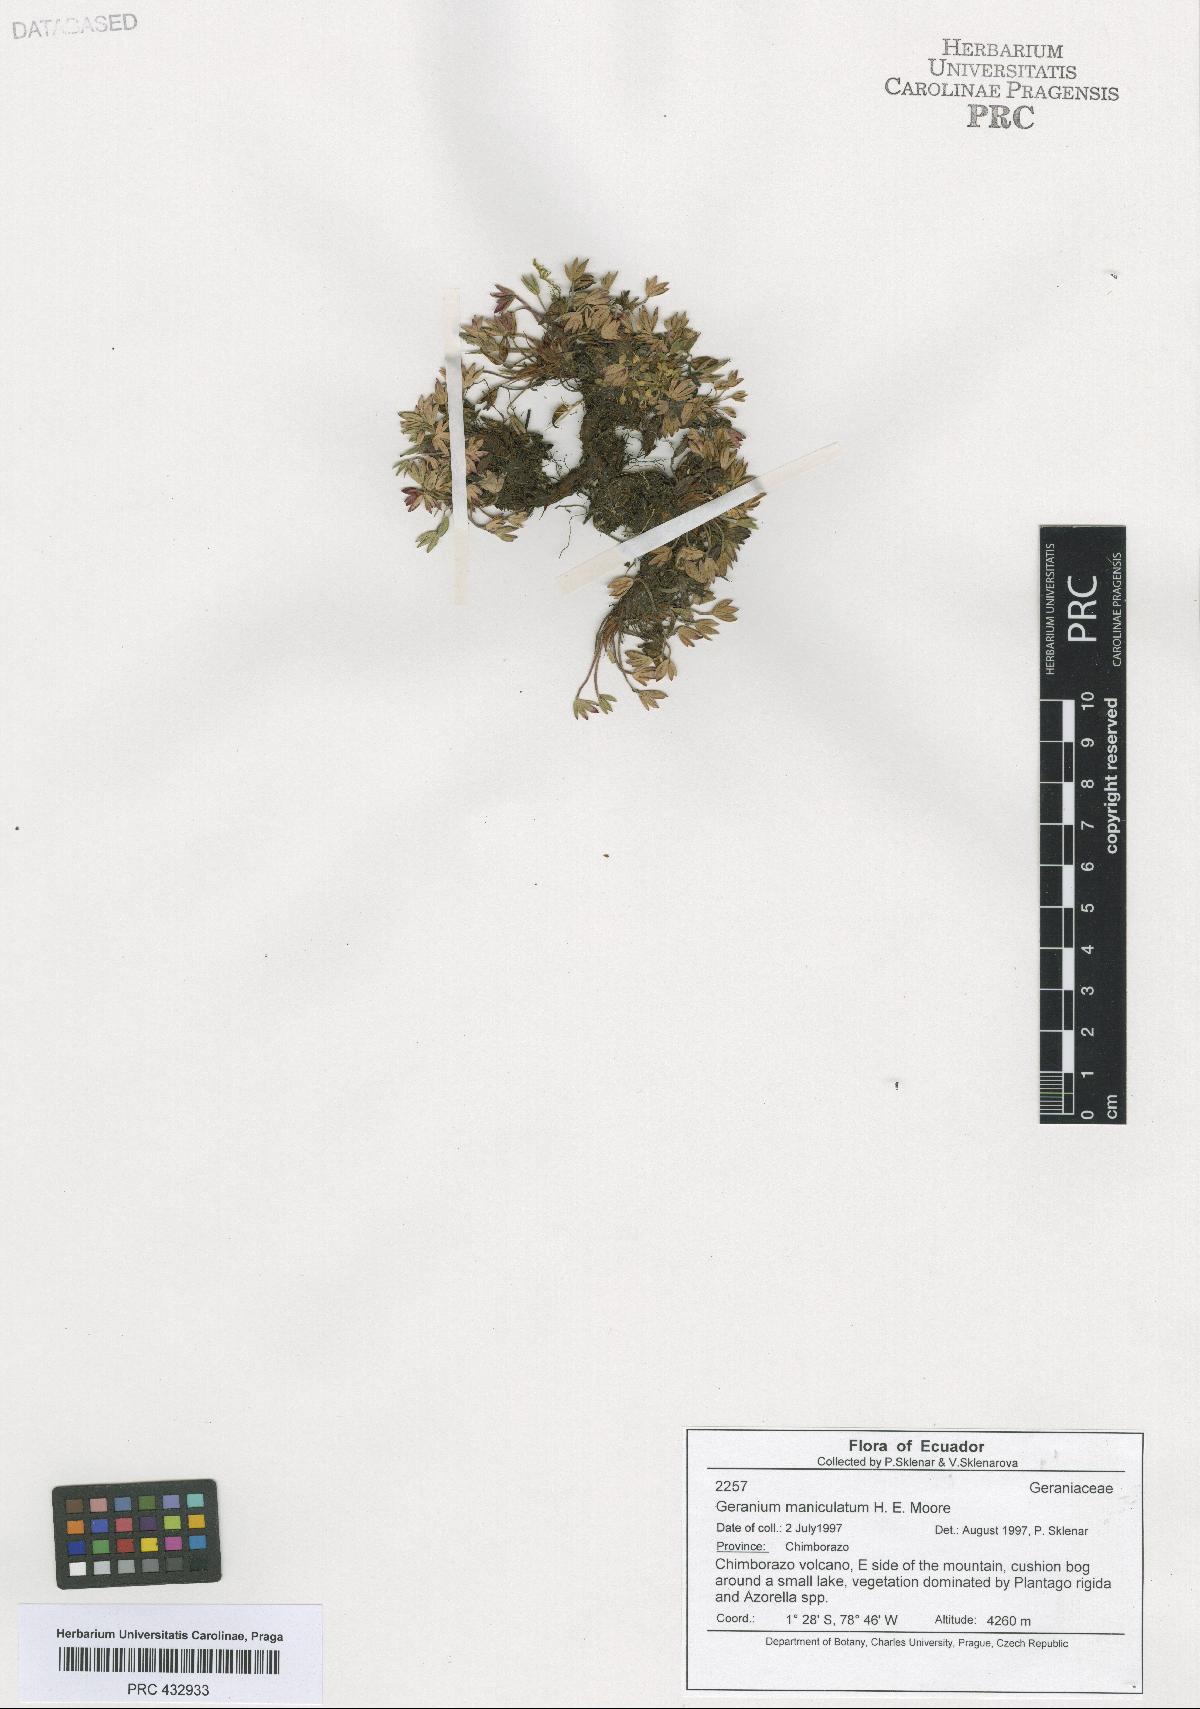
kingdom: Plantae
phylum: Tracheophyta
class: Magnoliopsida
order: Geraniales
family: Geraniaceae
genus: Geranium
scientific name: Geranium maniculatum
